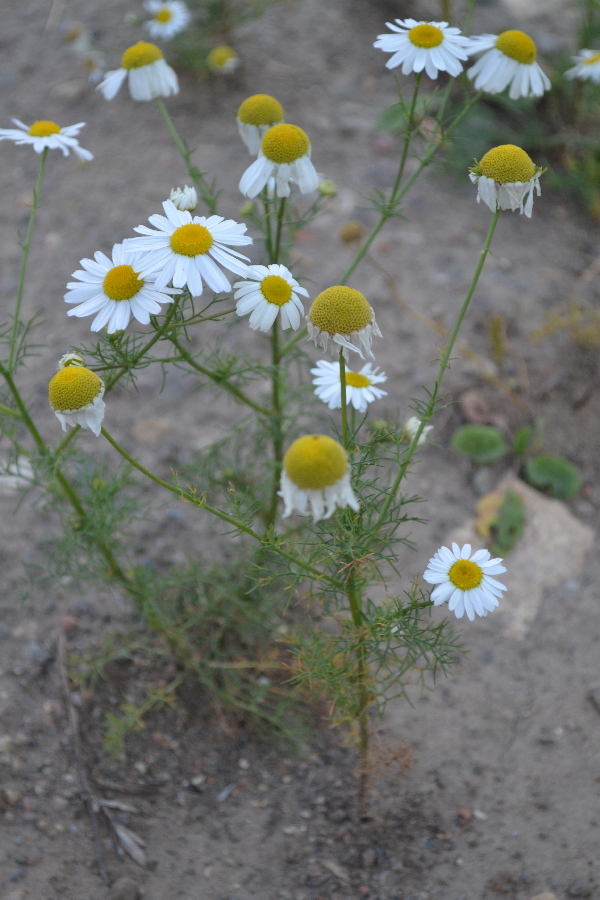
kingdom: Plantae
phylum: Tracheophyta
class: Magnoliopsida
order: Asterales
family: Asteraceae
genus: Tripleurospermum
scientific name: Tripleurospermum inodorum
